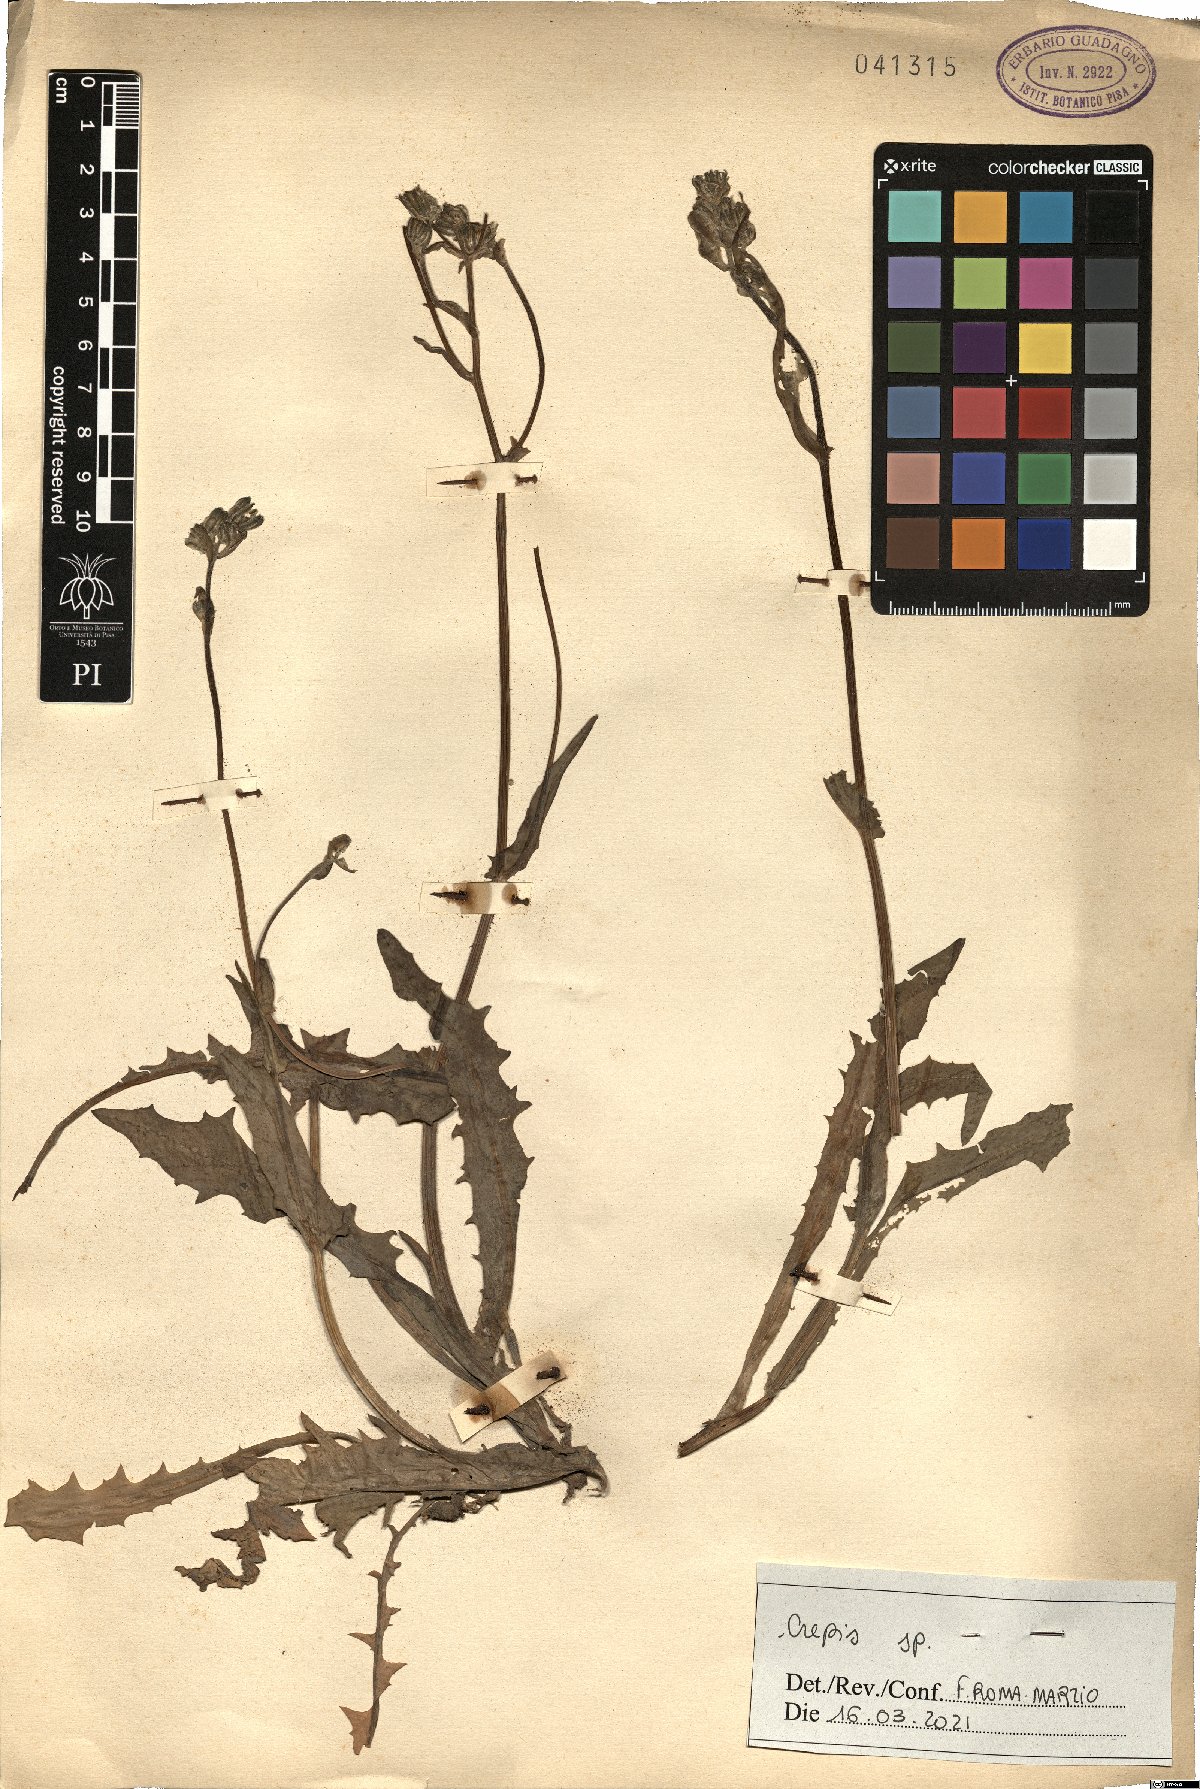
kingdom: Plantae
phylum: Tracheophyta
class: Magnoliopsida
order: Asterales
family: Asteraceae
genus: Crepis
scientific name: Crepis
